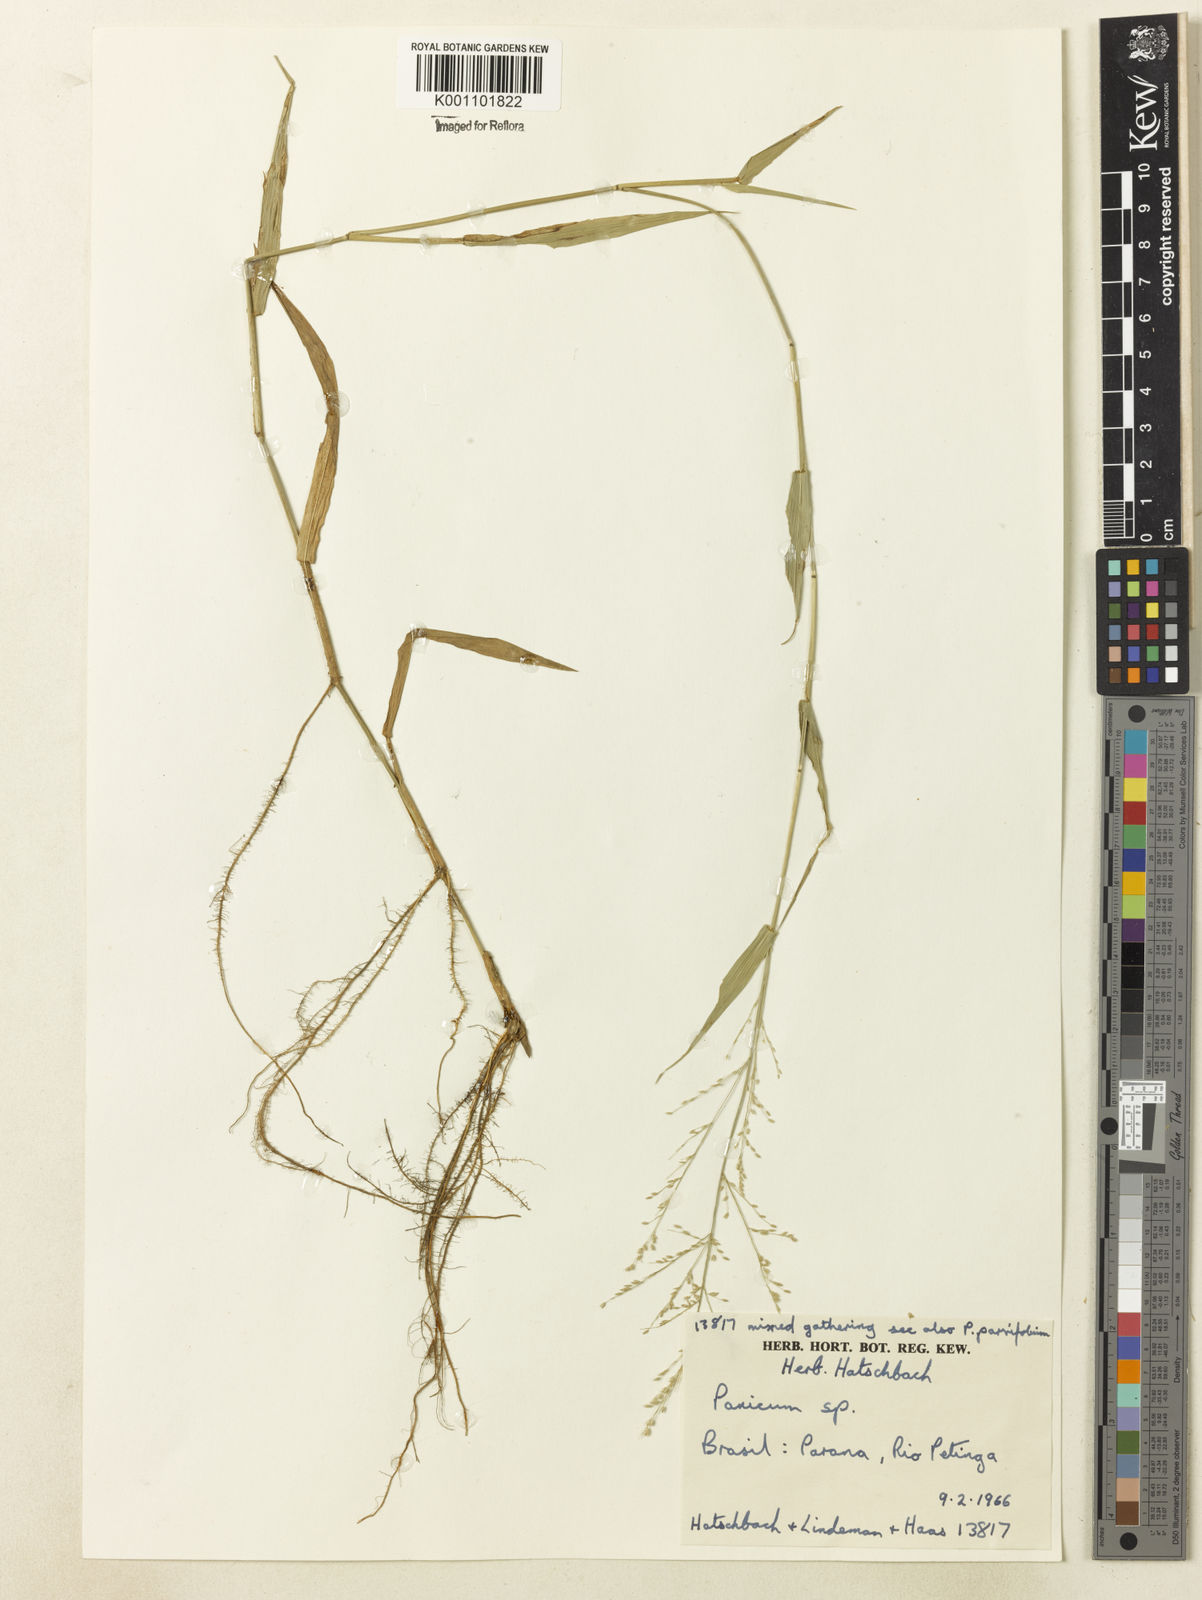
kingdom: Plantae
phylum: Tracheophyta
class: Liliopsida
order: Poales
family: Poaceae
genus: Rugoloa
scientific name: Rugoloa polygonata
